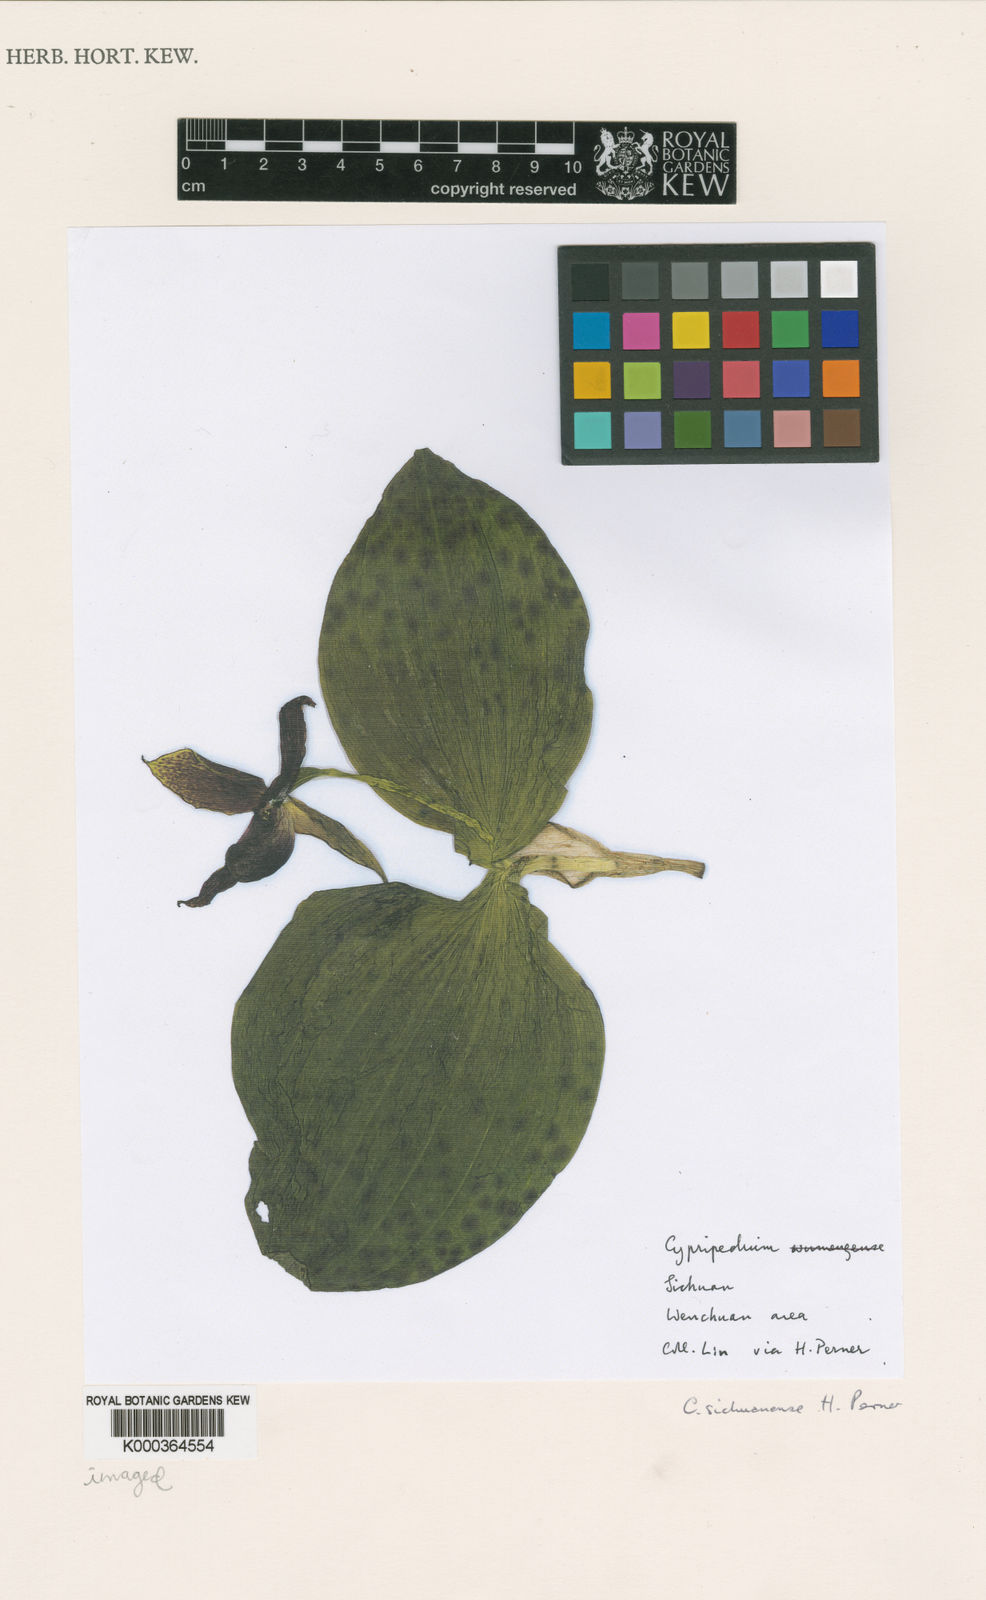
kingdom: Plantae
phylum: Tracheophyta
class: Liliopsida
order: Asparagales
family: Orchidaceae
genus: Cypripedium
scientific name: Cypripedium sichuanense
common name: Sichuan cypripedium
